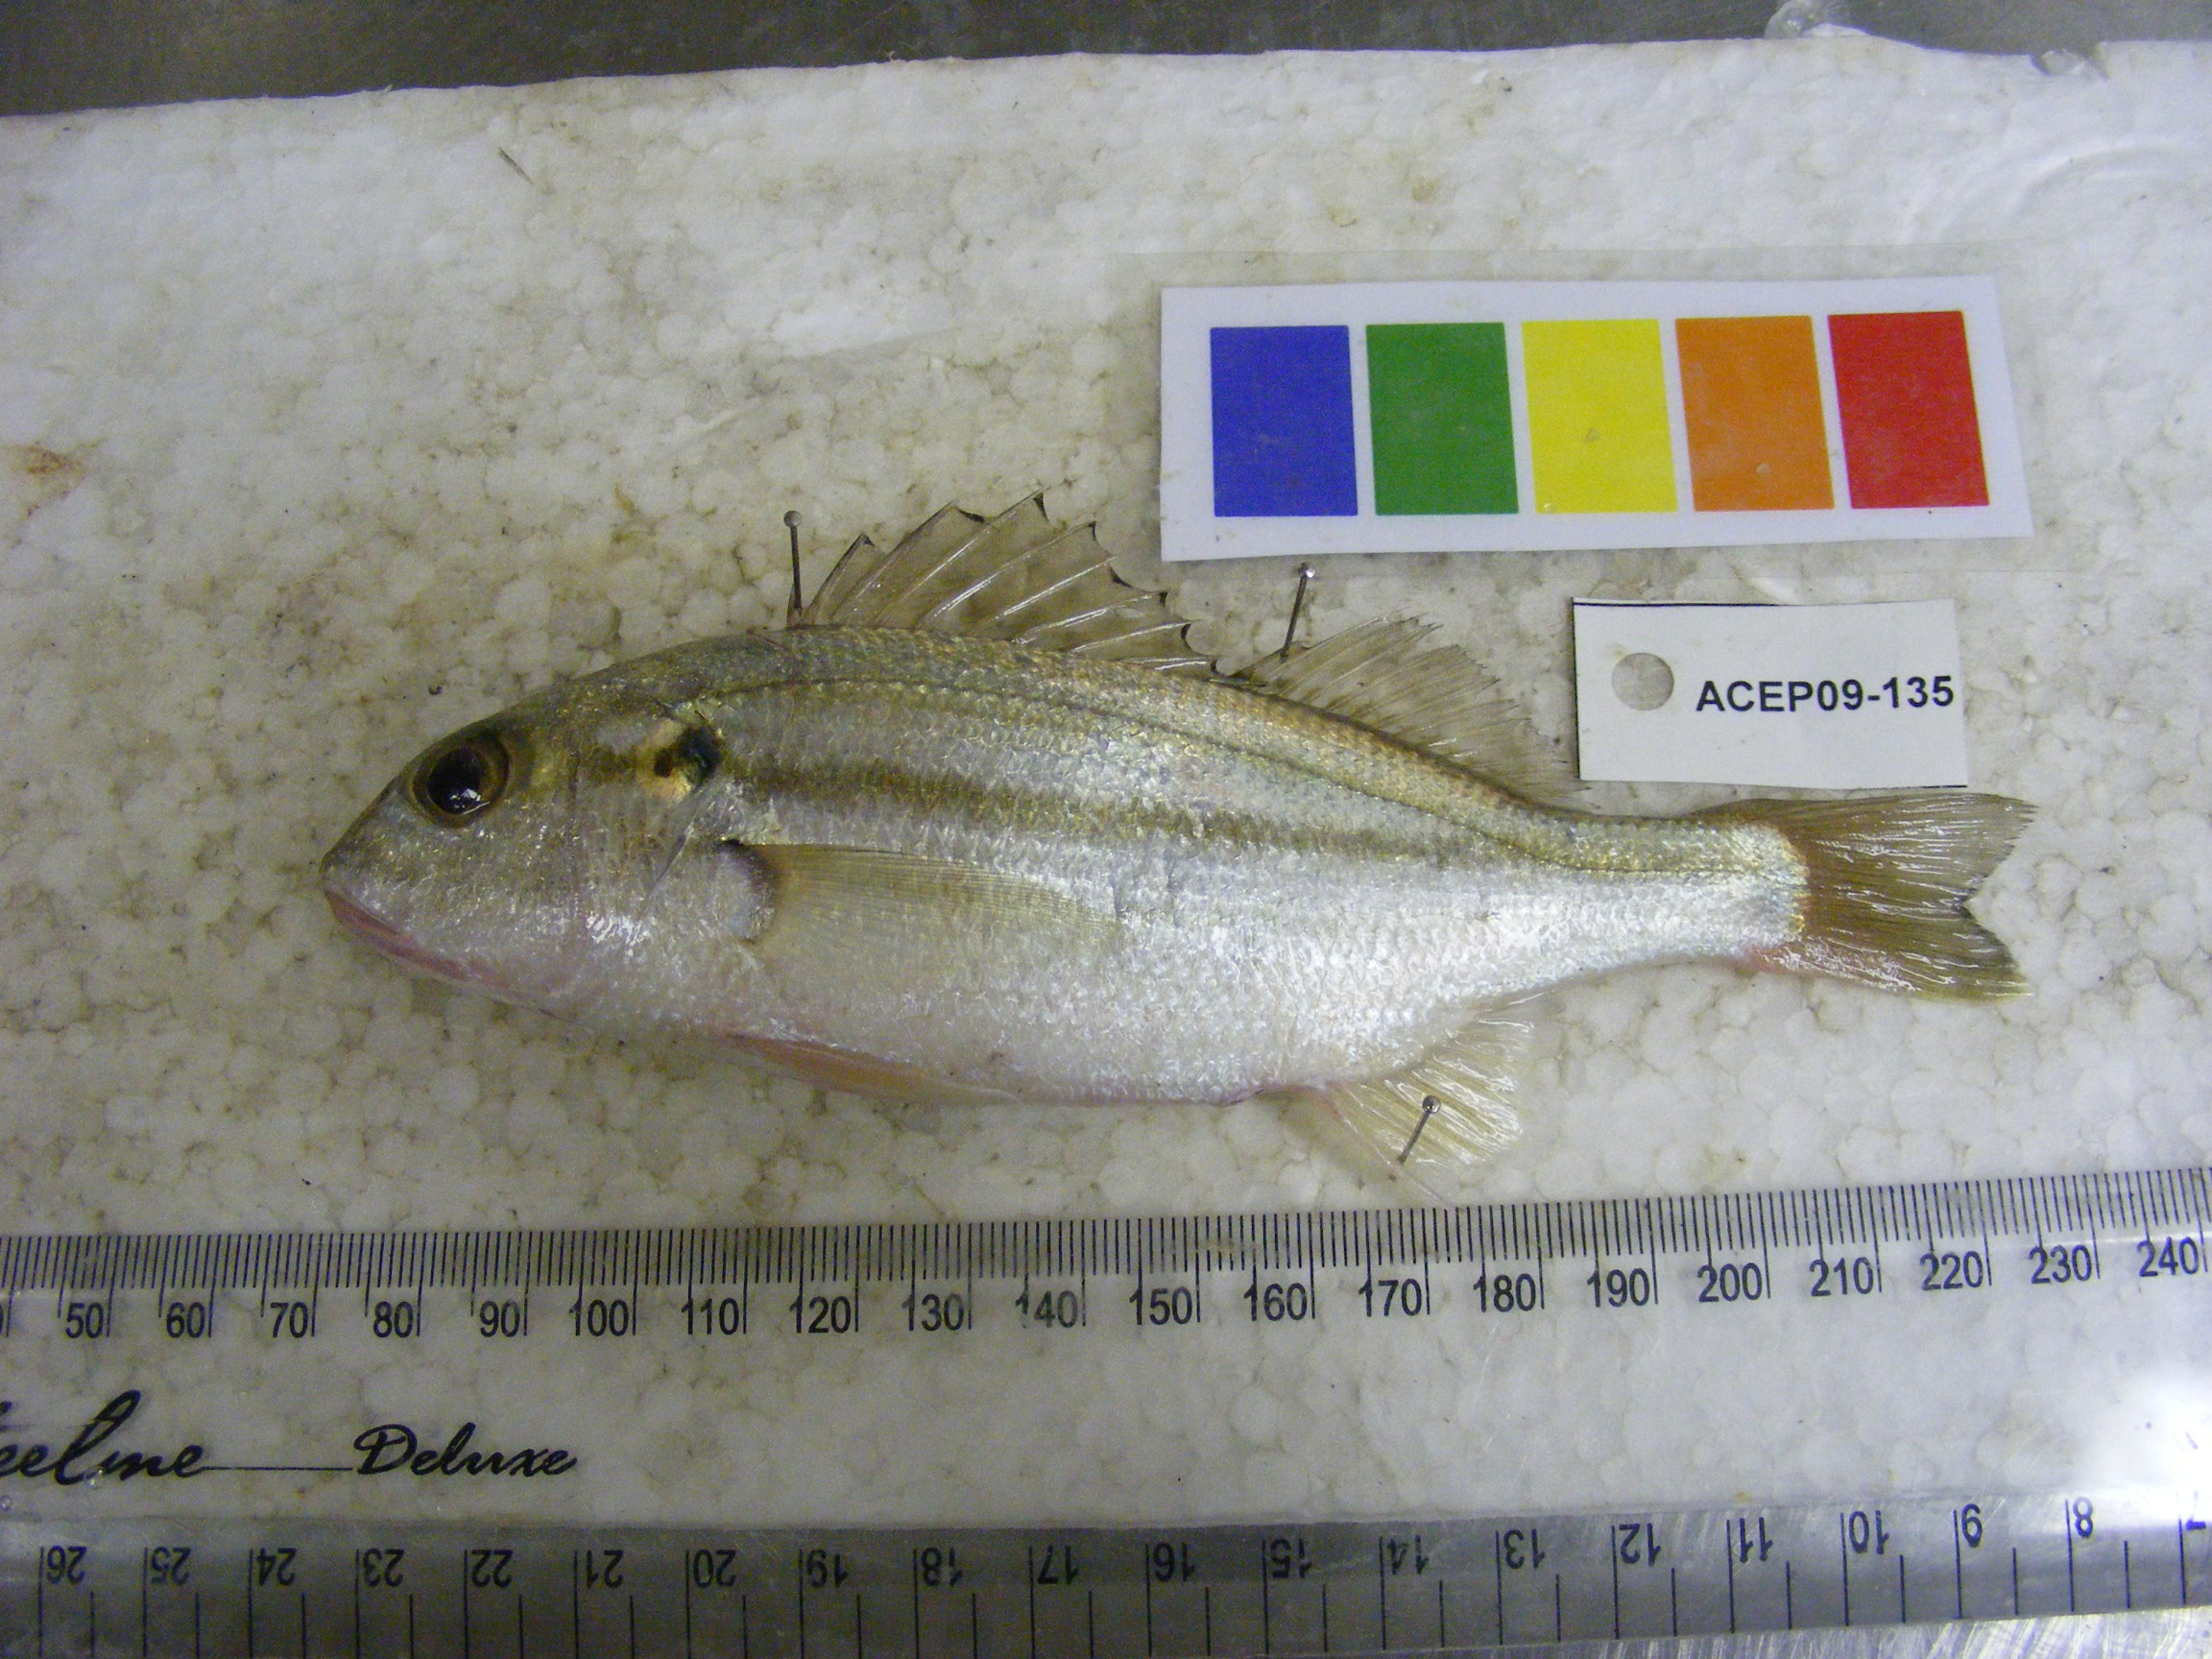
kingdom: Animalia
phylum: Chordata
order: Perciformes
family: Lutjanidae
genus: Lutjanus
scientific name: Lutjanus lutjanus
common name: Bigeye snapper
